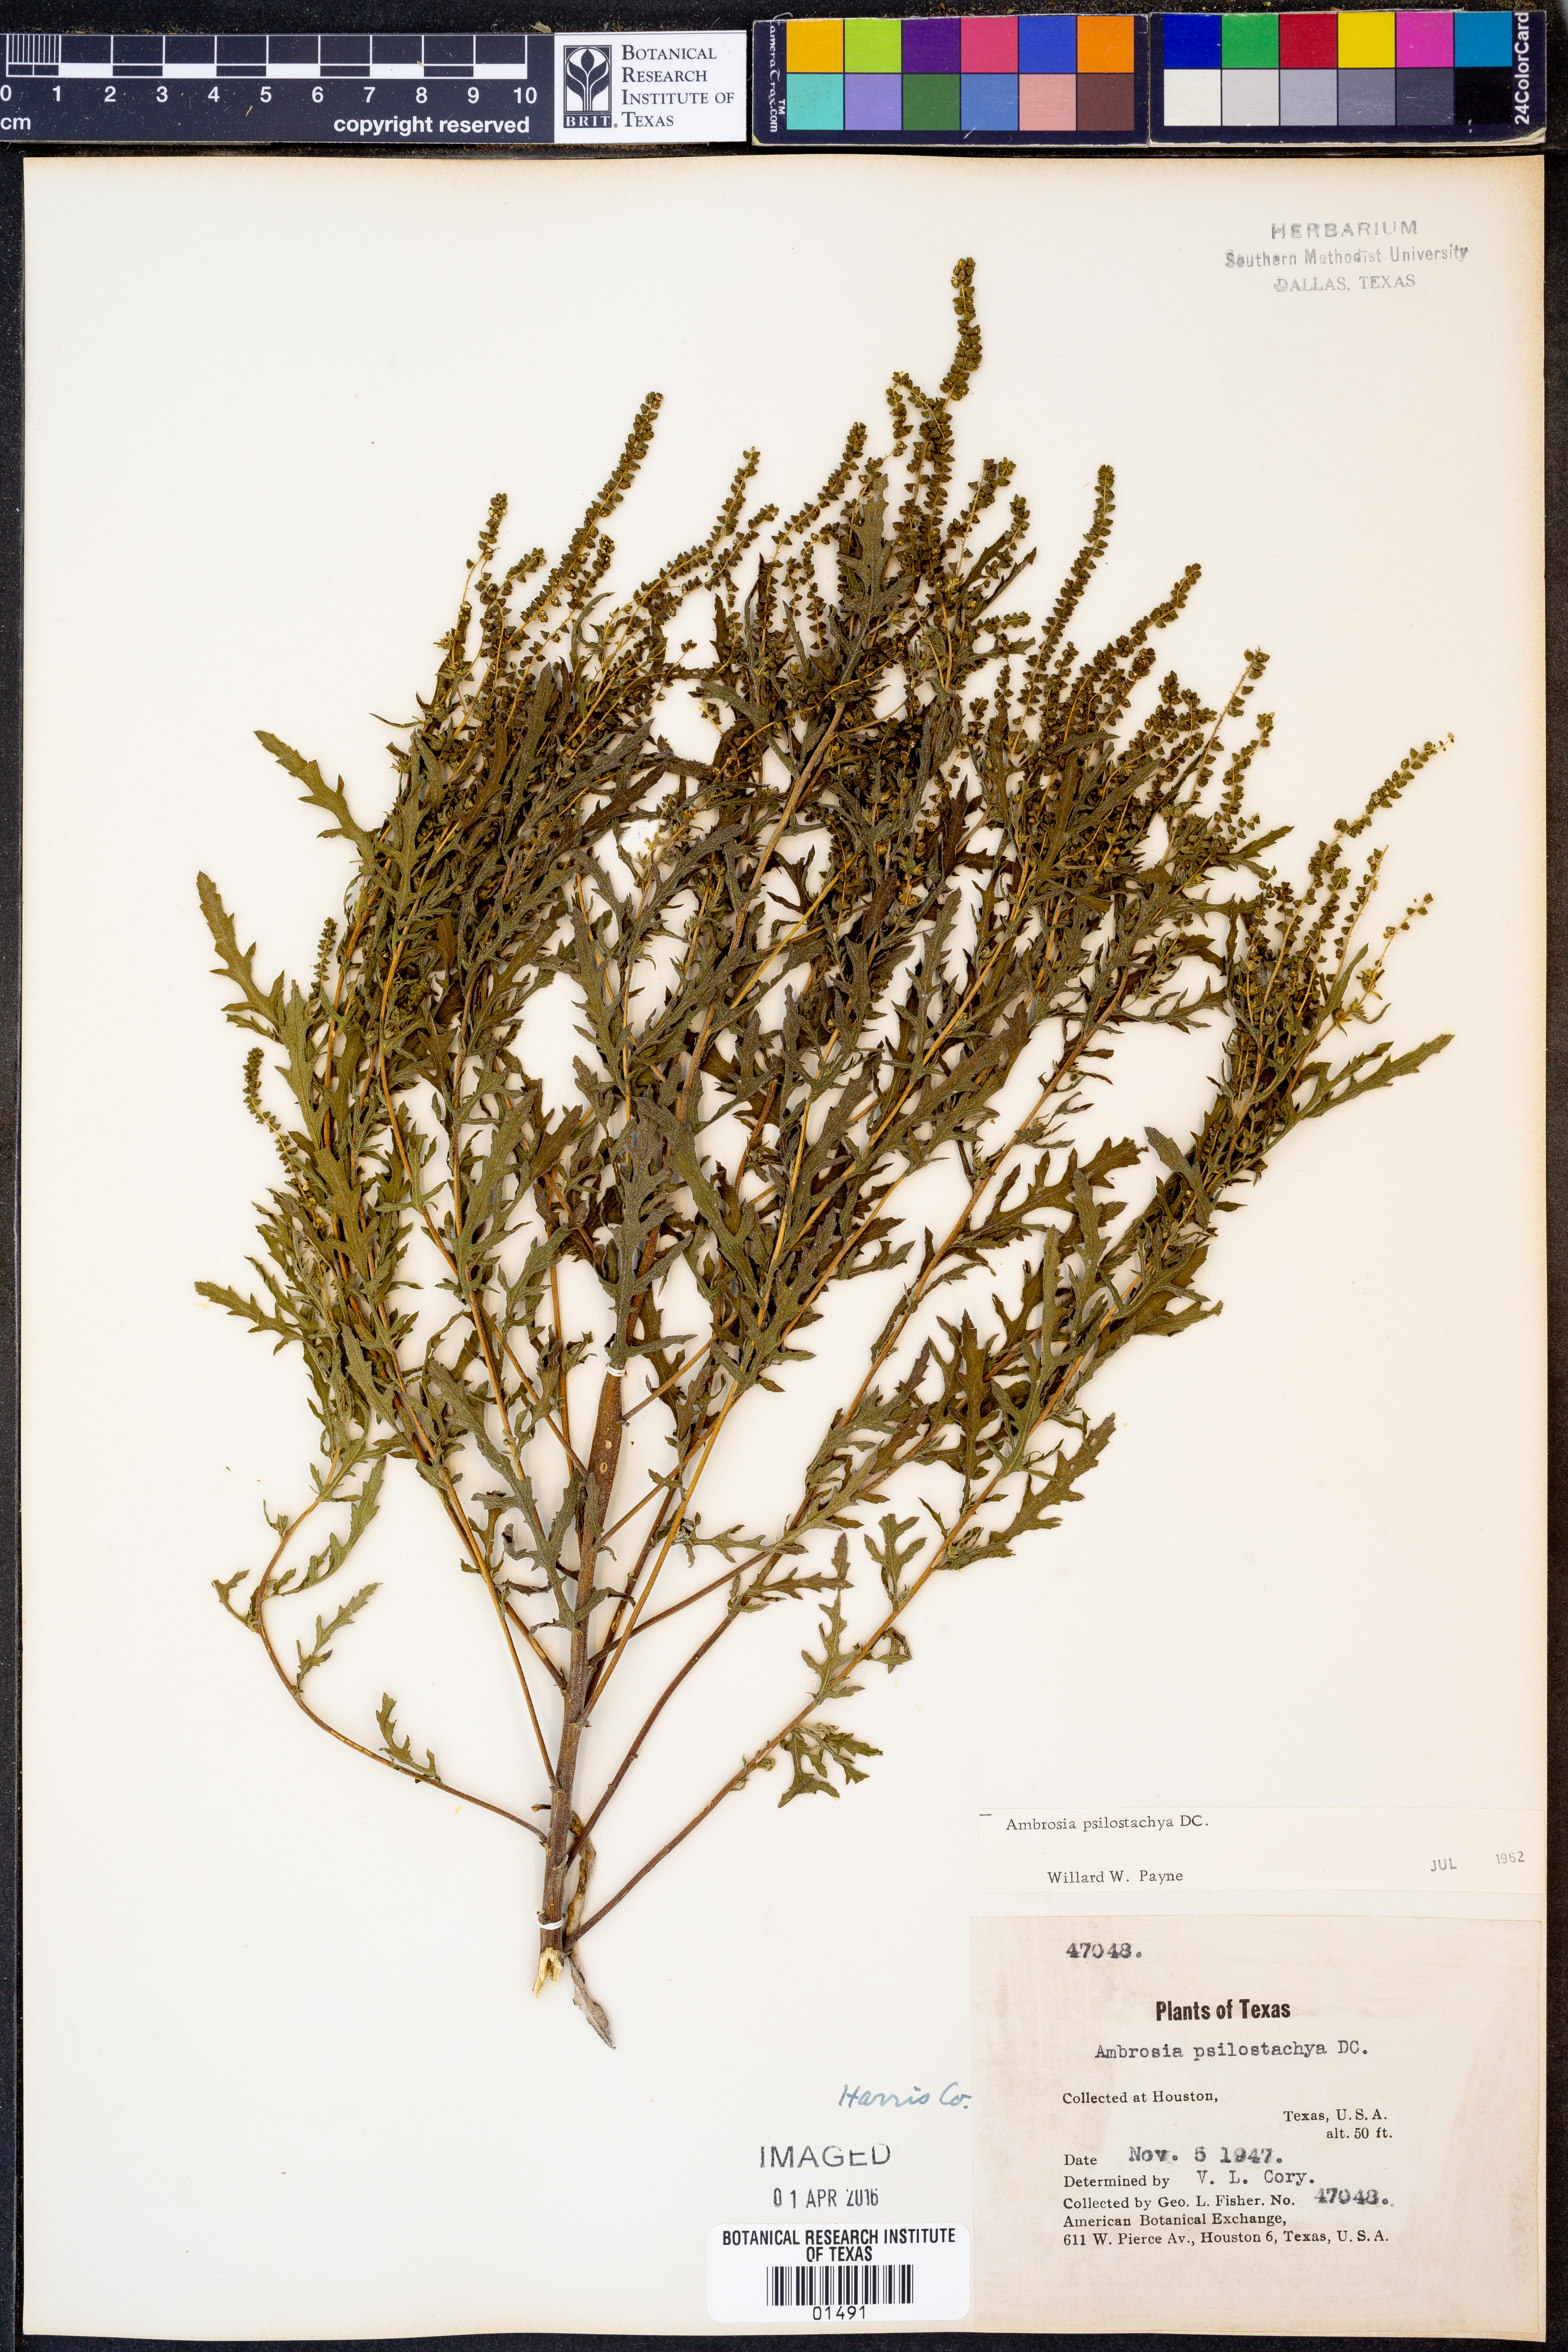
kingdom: Plantae
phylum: Tracheophyta
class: Magnoliopsida
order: Asterales
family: Asteraceae
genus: Ambrosia
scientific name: Ambrosia psilostachya
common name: Perennial ragweed
